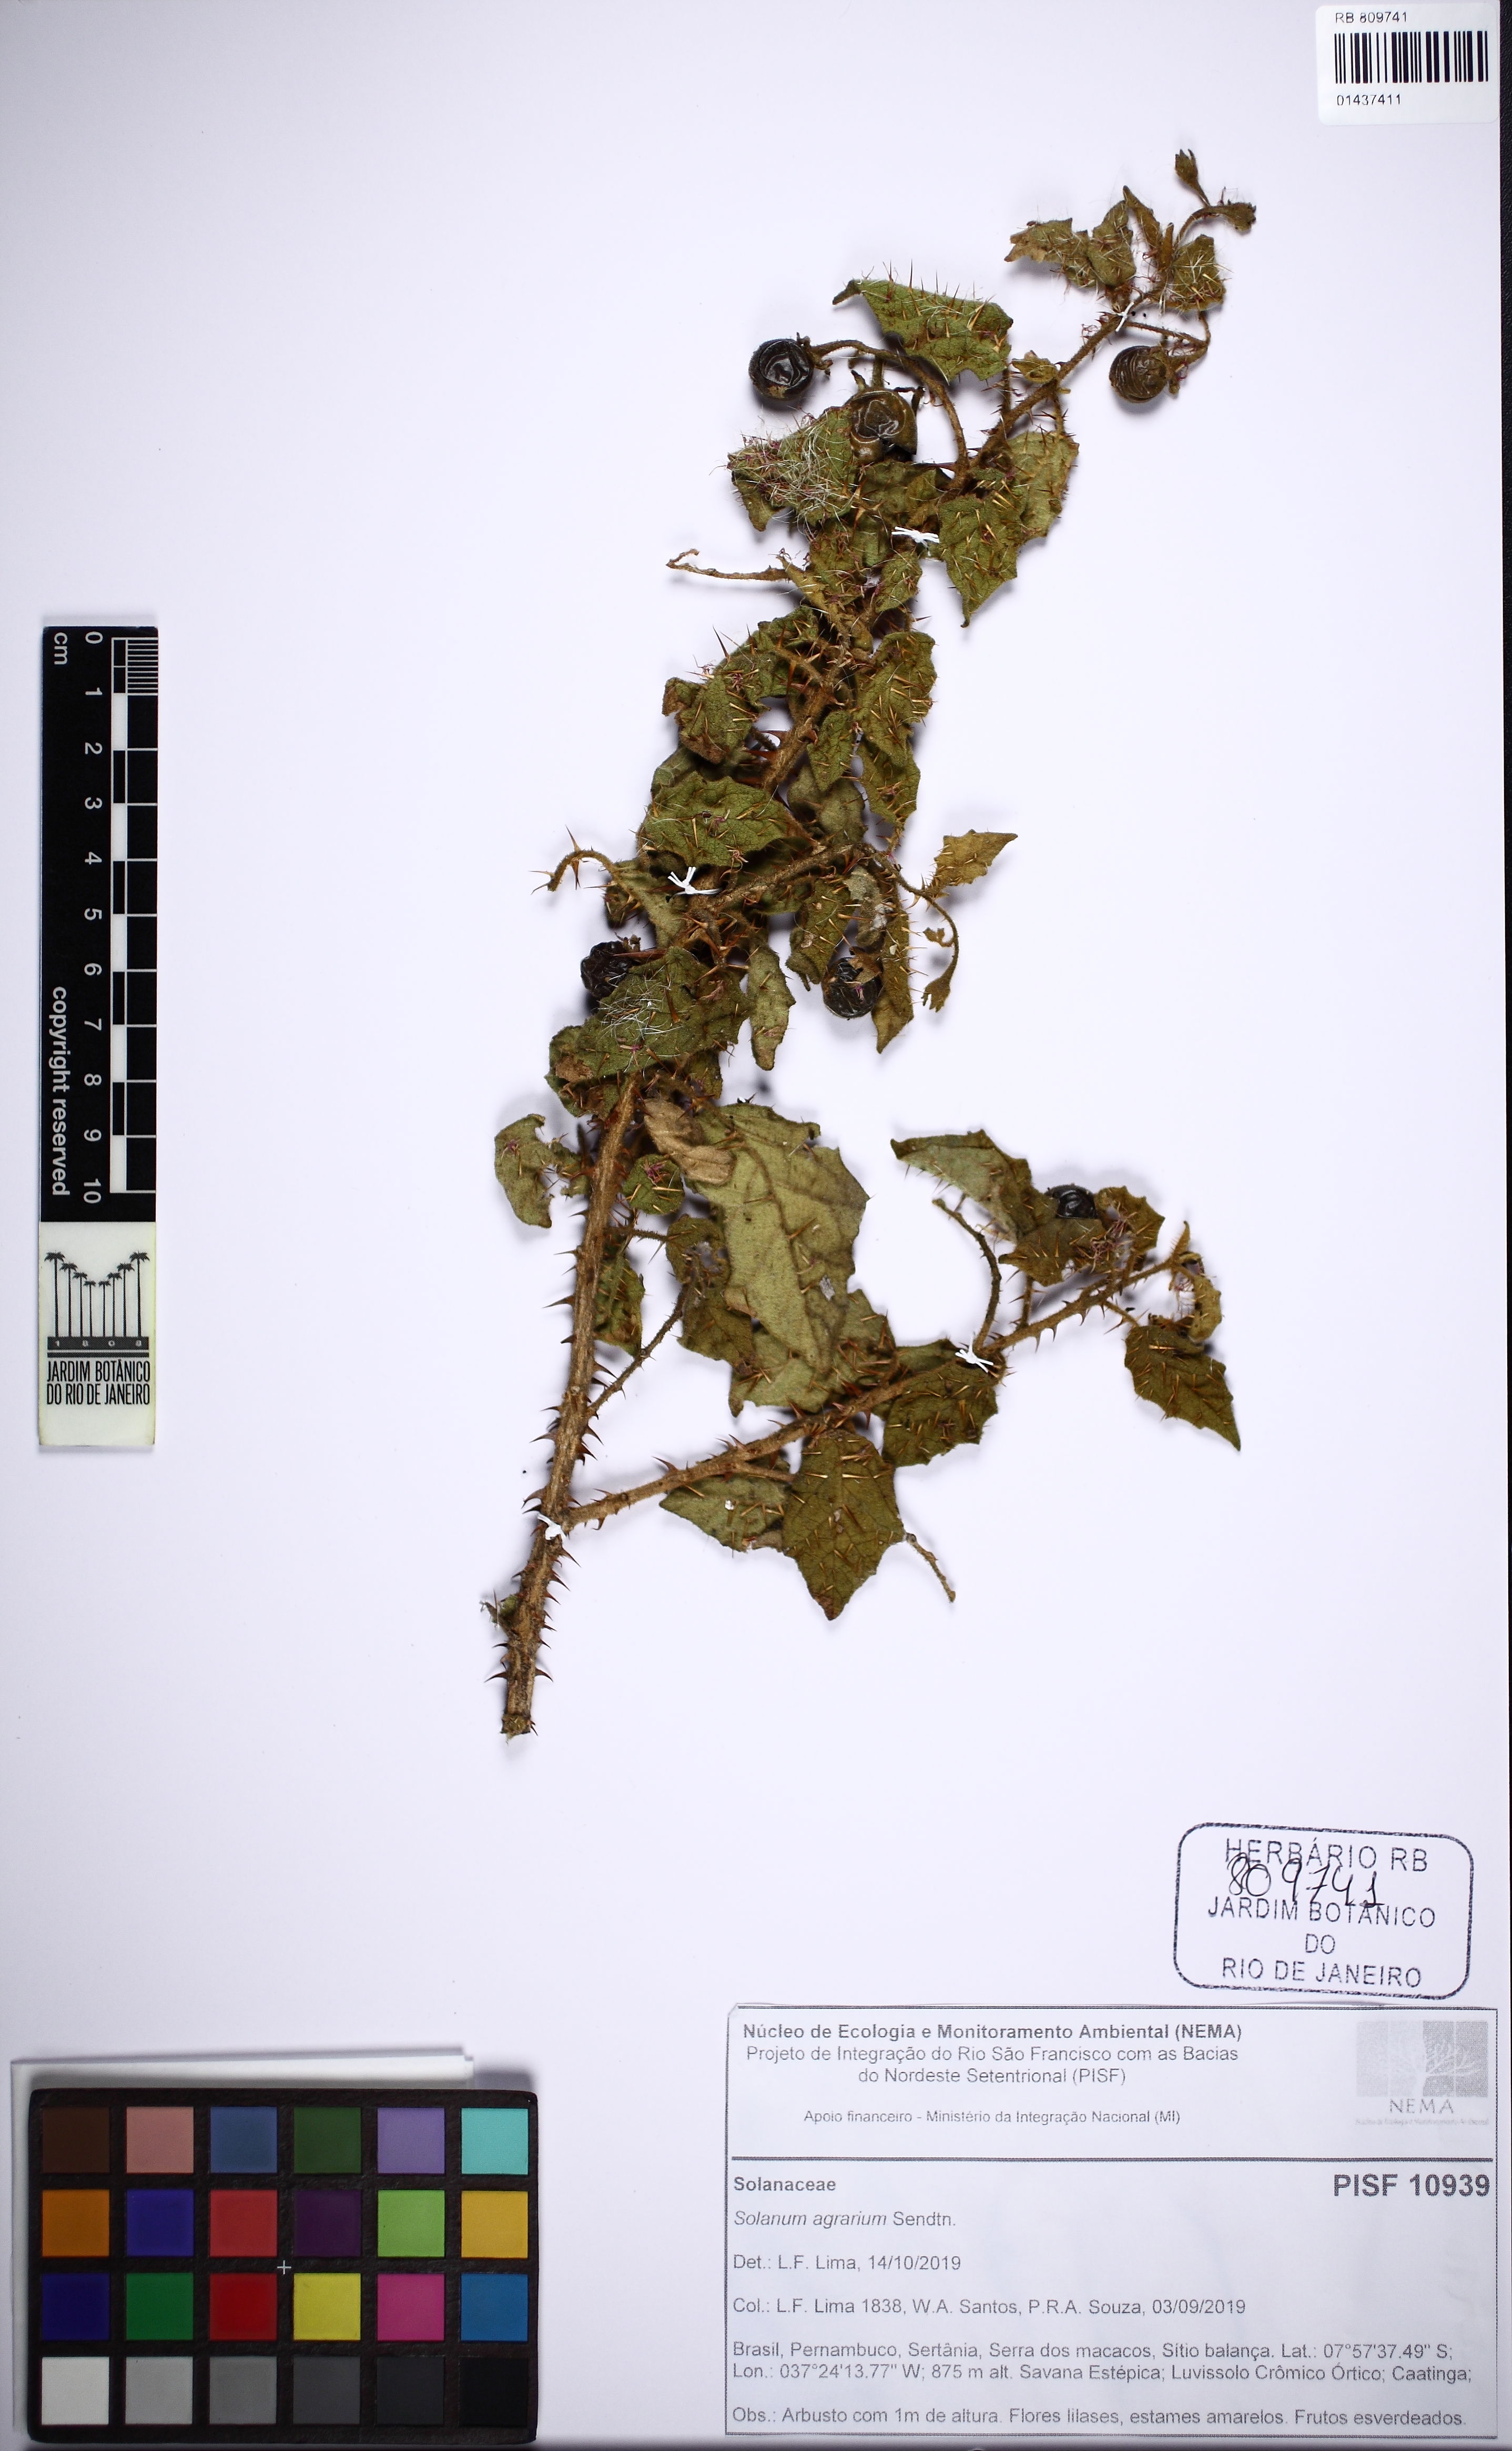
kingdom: Plantae
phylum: Tracheophyta
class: Magnoliopsida
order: Solanales
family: Solanaceae
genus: Solanum
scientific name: Solanum agrarium
